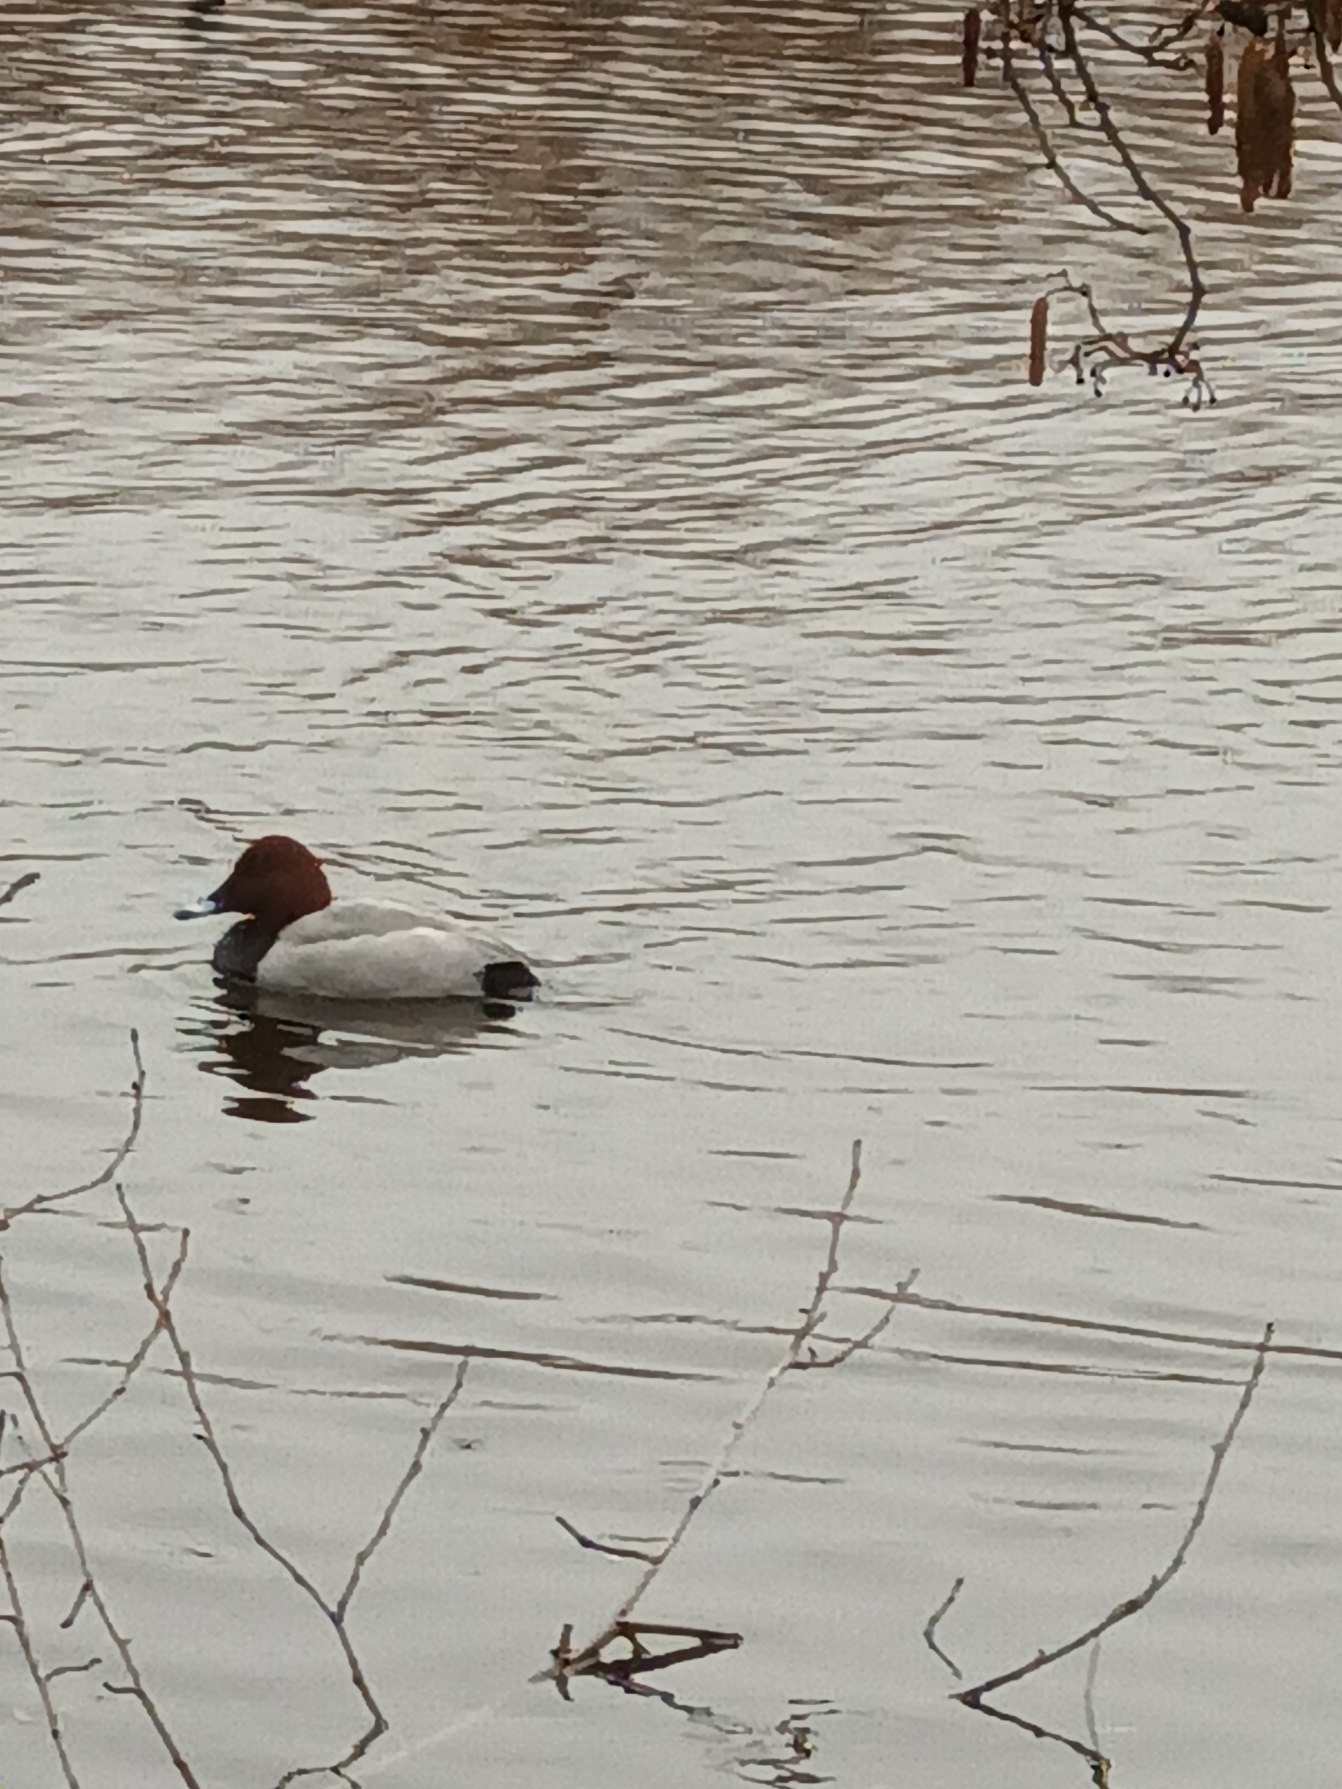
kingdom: Animalia
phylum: Chordata
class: Aves
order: Anseriformes
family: Anatidae
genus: Aythya
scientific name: Aythya ferina
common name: Taffeland
